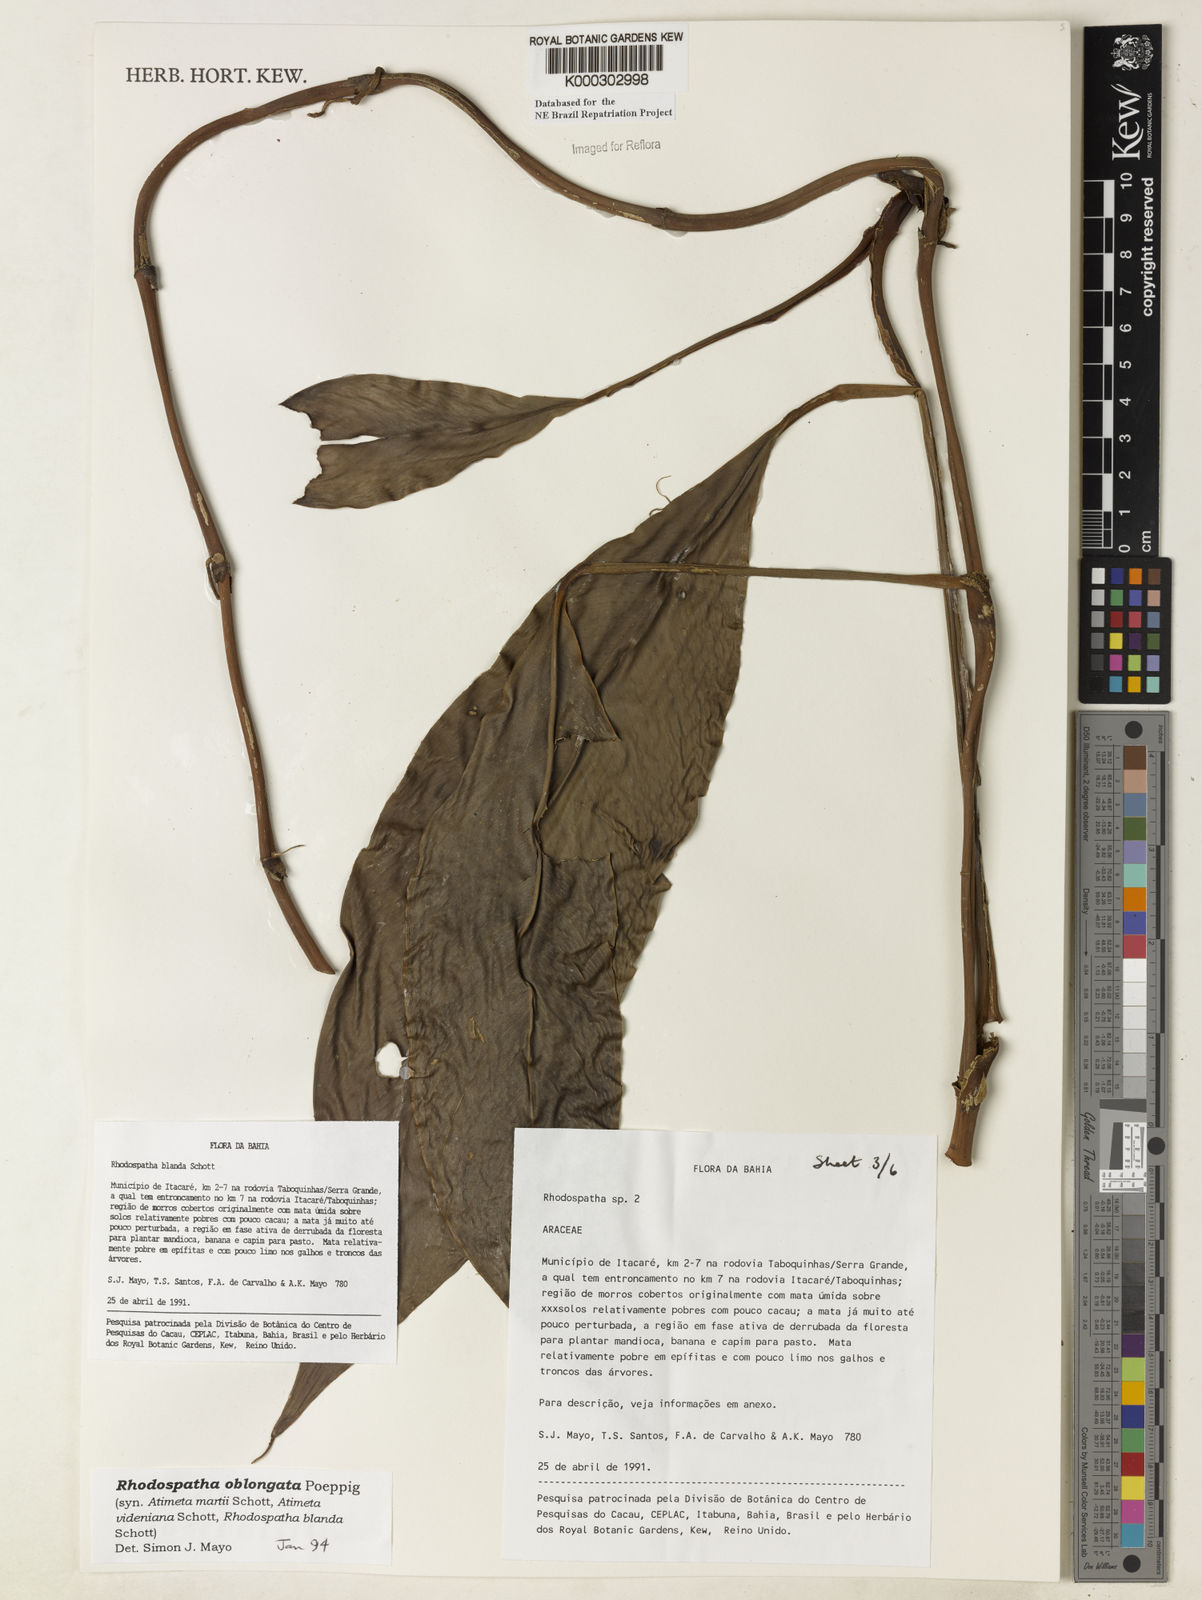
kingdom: Plantae
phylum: Tracheophyta
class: Liliopsida
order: Alismatales
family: Araceae
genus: Rhodospatha
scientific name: Rhodospatha oblongata
